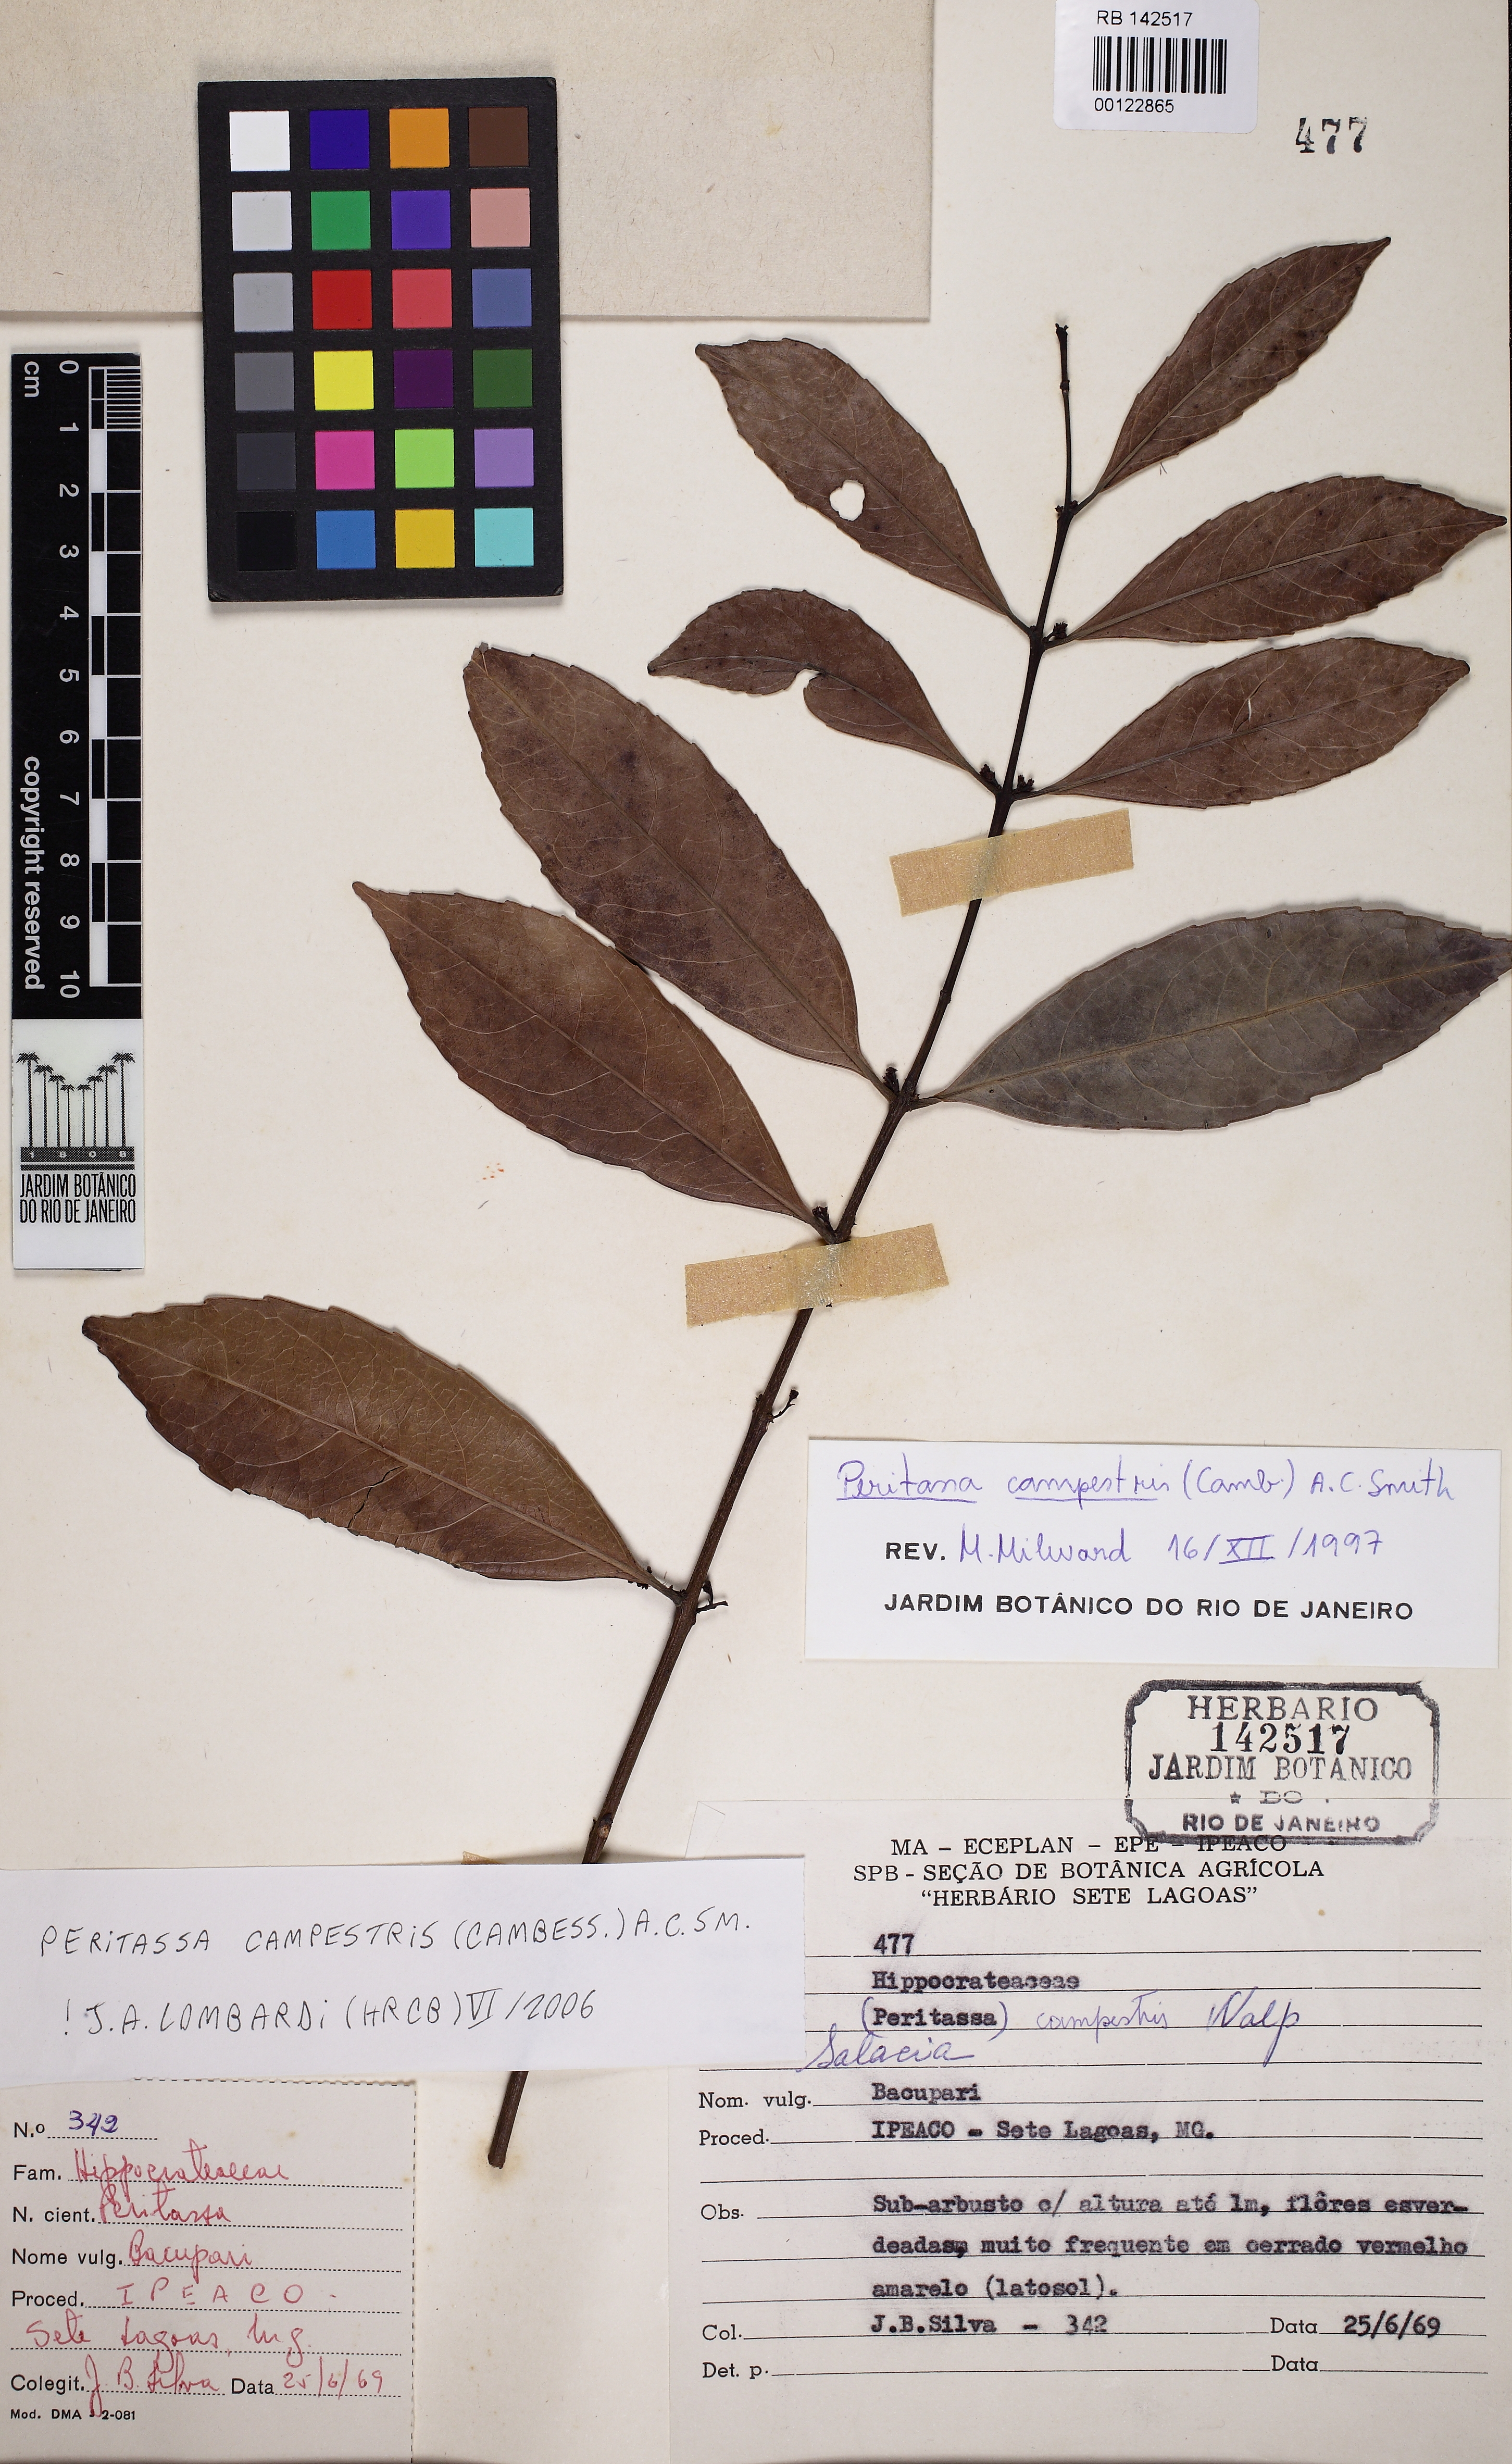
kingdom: Plantae
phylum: Tracheophyta
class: Magnoliopsida
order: Celastrales
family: Celastraceae
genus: Peritassa
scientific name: Peritassa campestris
